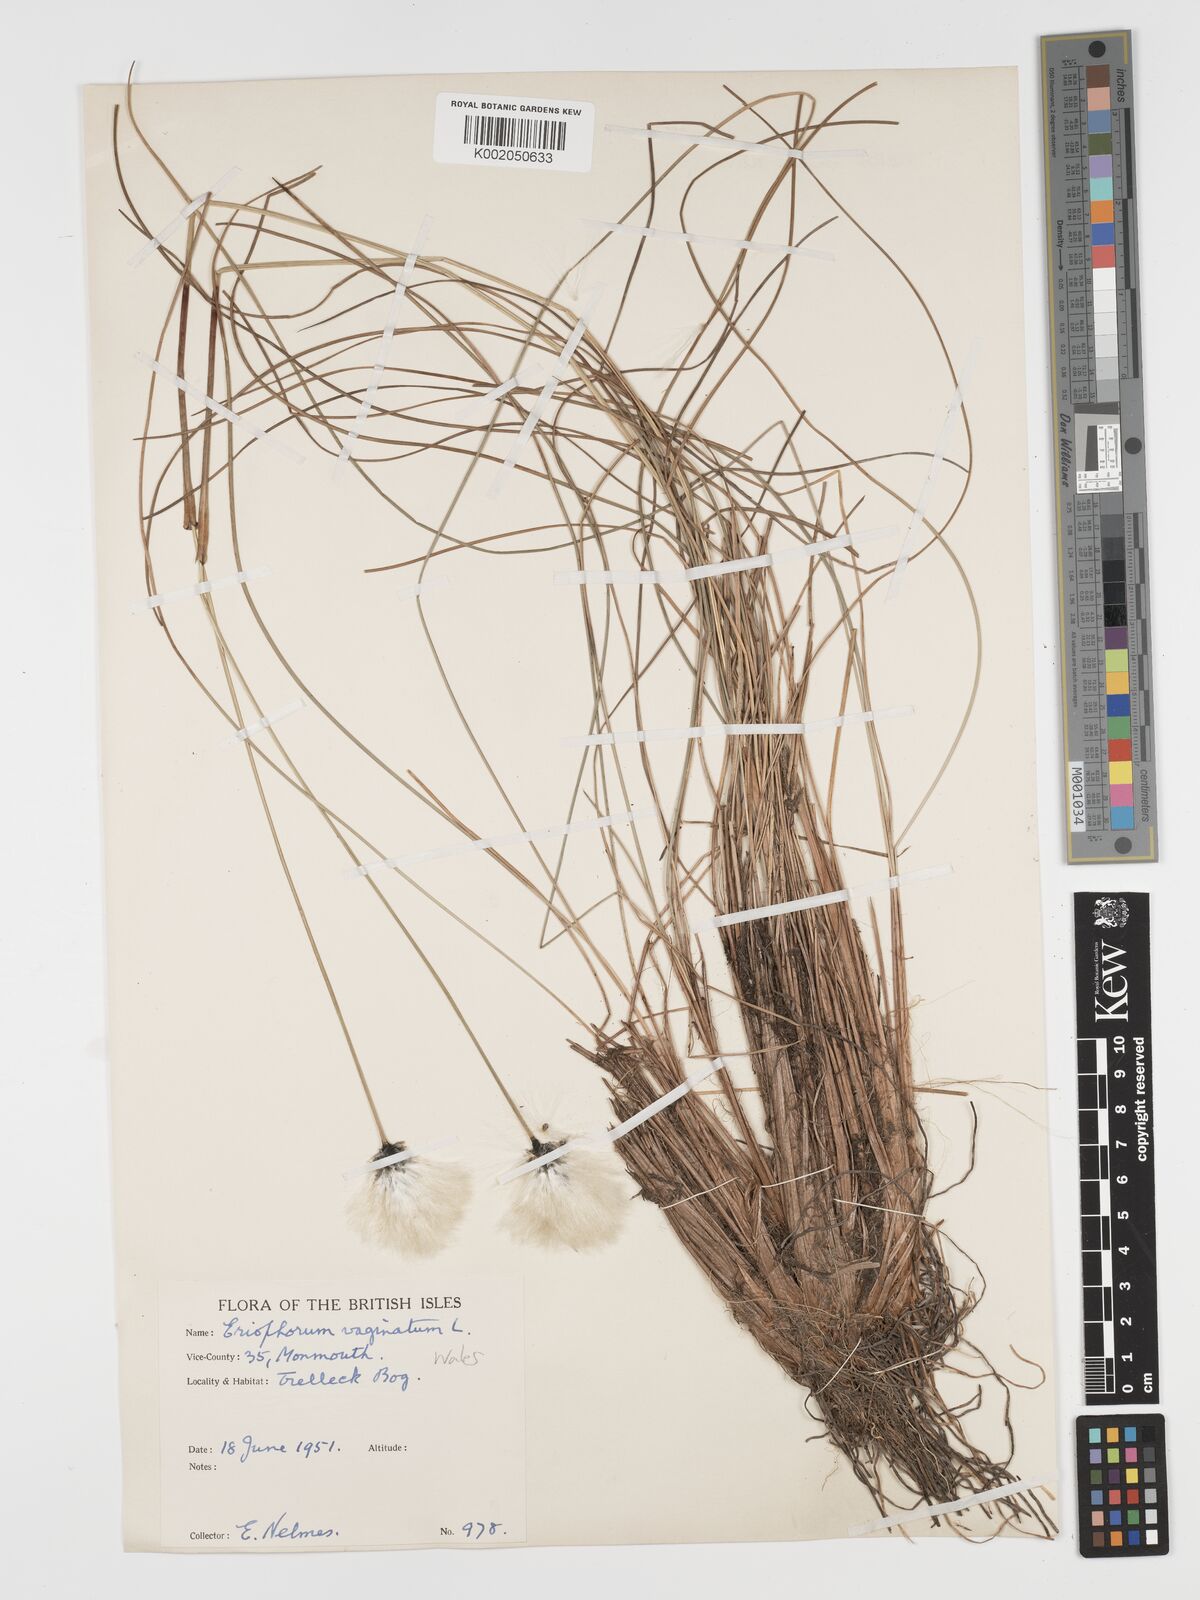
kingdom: Plantae
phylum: Tracheophyta
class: Liliopsida
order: Poales
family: Cyperaceae
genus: Eriophorum
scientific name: Eriophorum vaginatum
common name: Hare's-tail cottongrass
